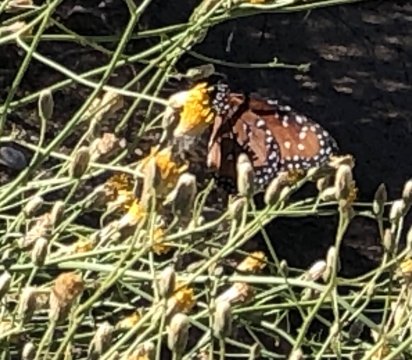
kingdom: Animalia
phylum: Arthropoda
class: Insecta
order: Lepidoptera
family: Nymphalidae
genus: Danaus
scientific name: Danaus gilippus
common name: Queen
